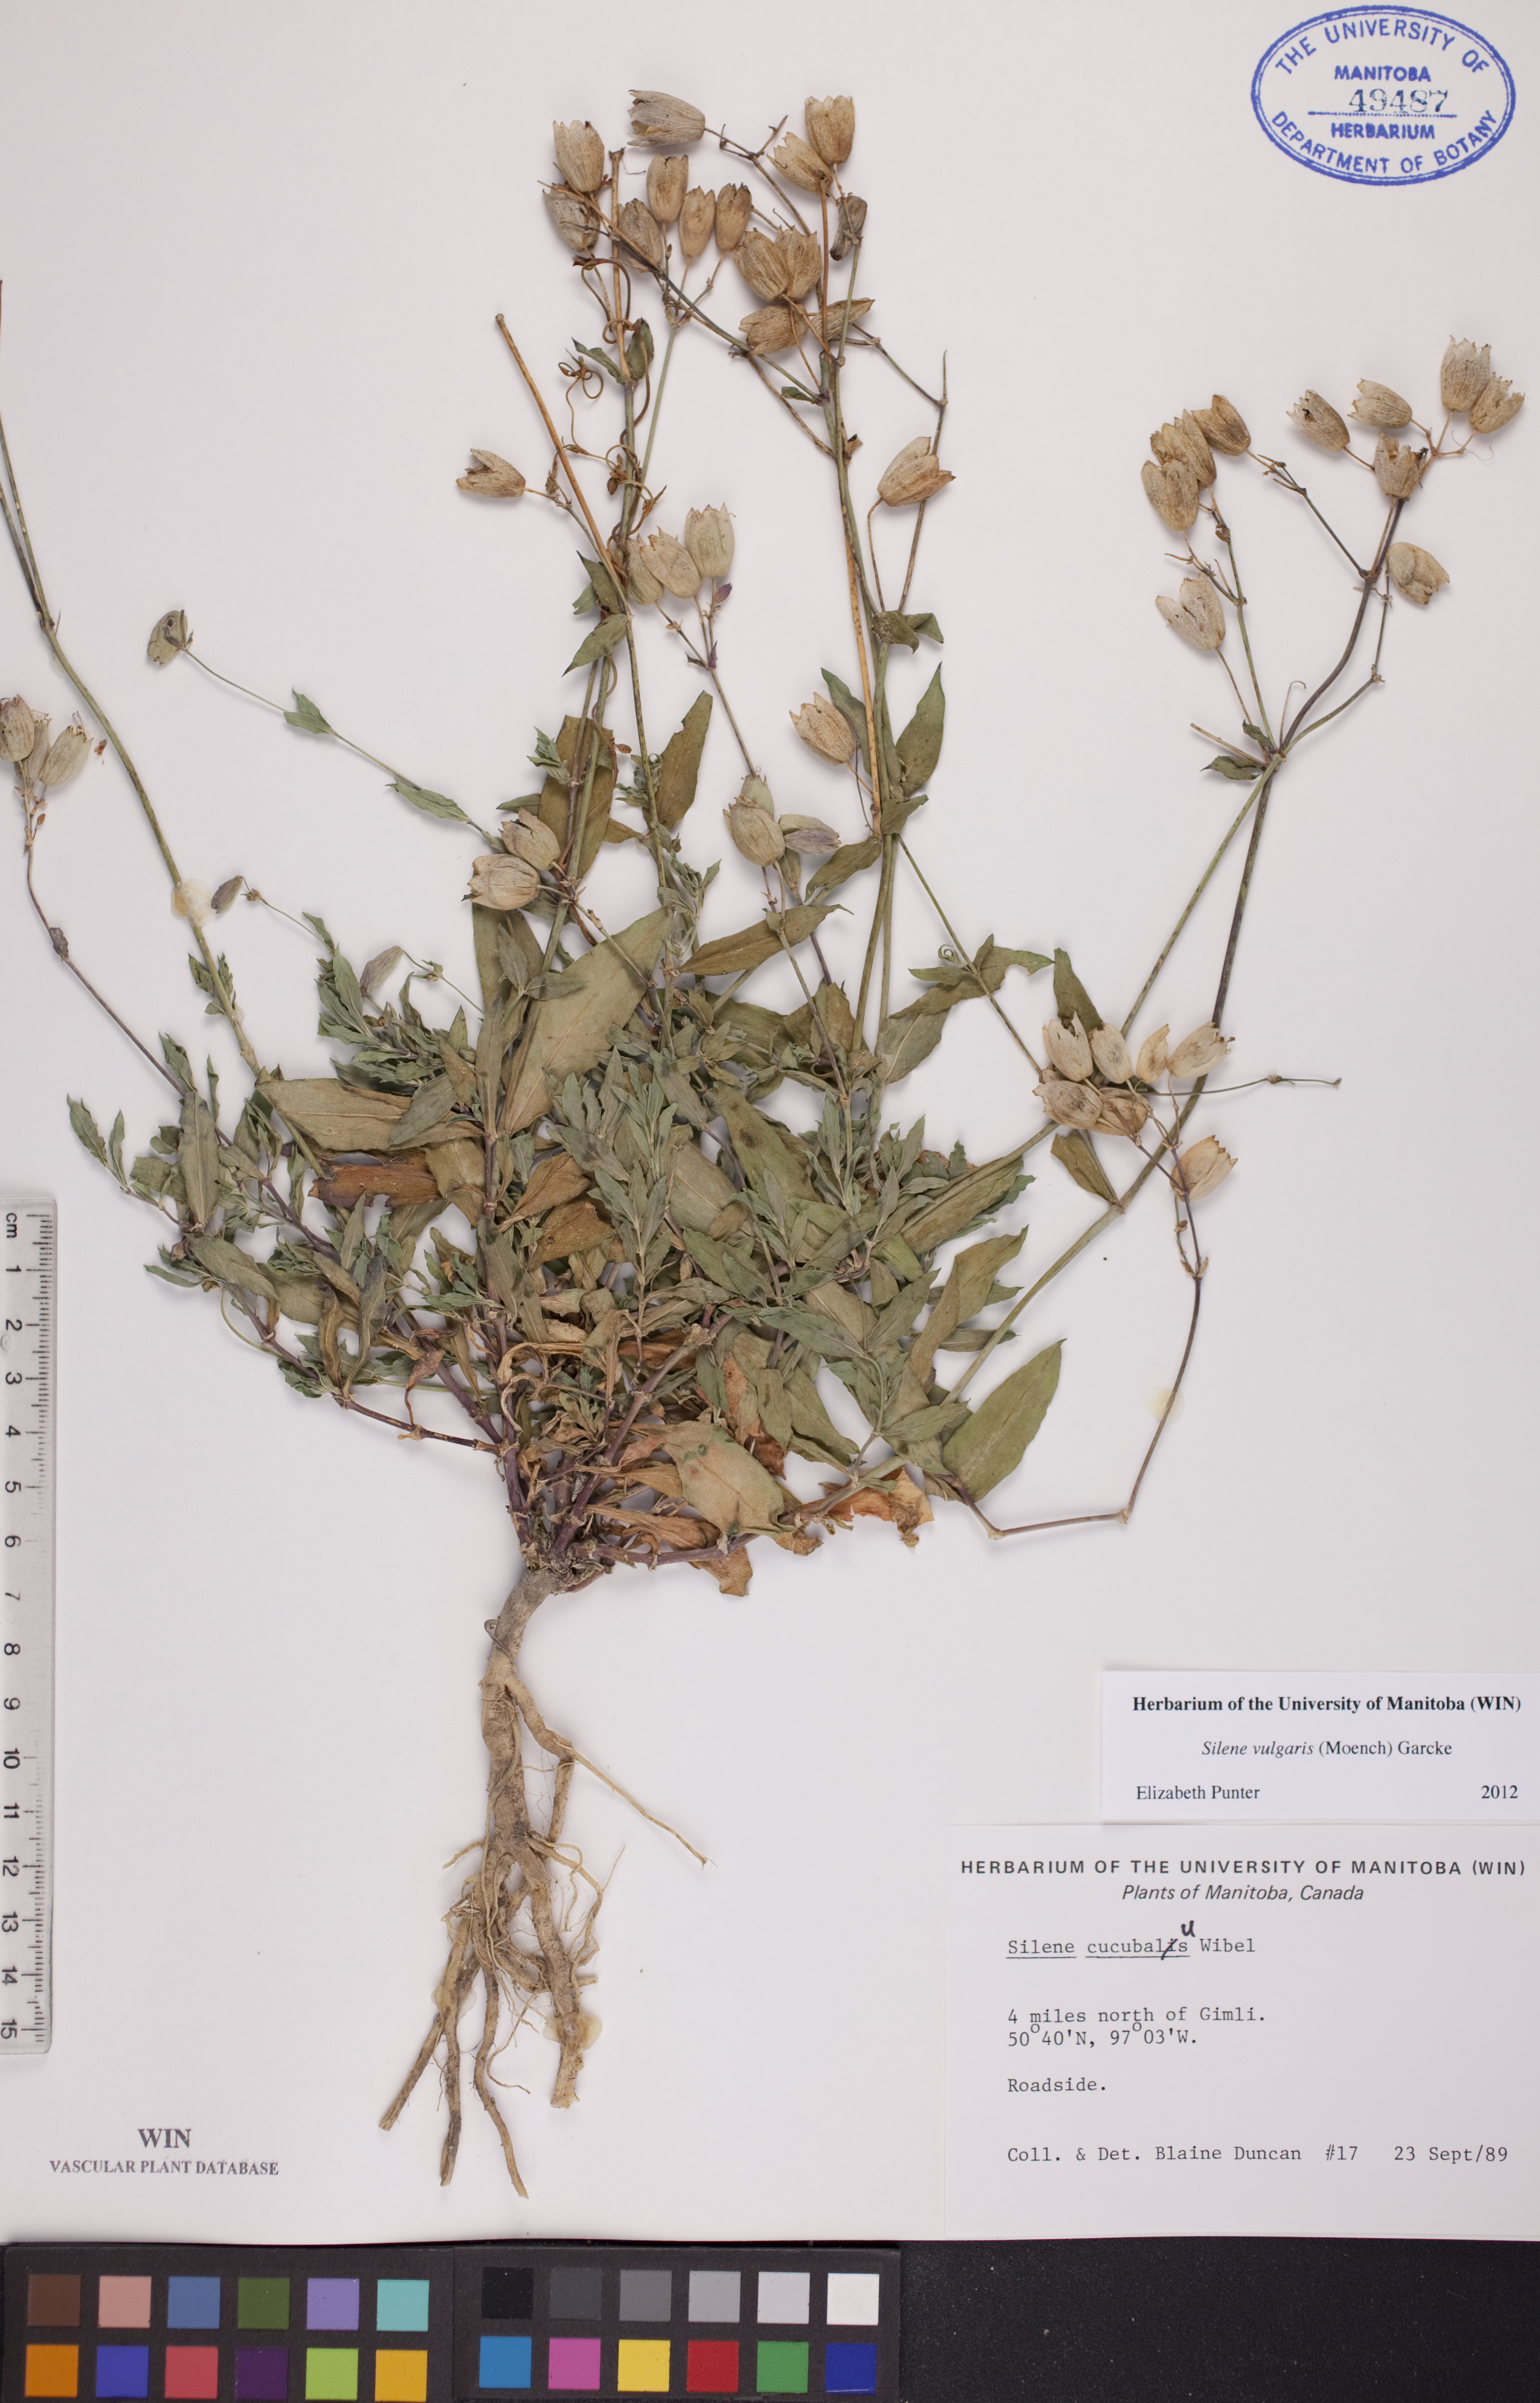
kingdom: Plantae
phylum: Tracheophyta
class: Magnoliopsida
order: Caryophyllales
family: Caryophyllaceae
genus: Silene
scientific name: Silene vulgaris
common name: Bladder campion
